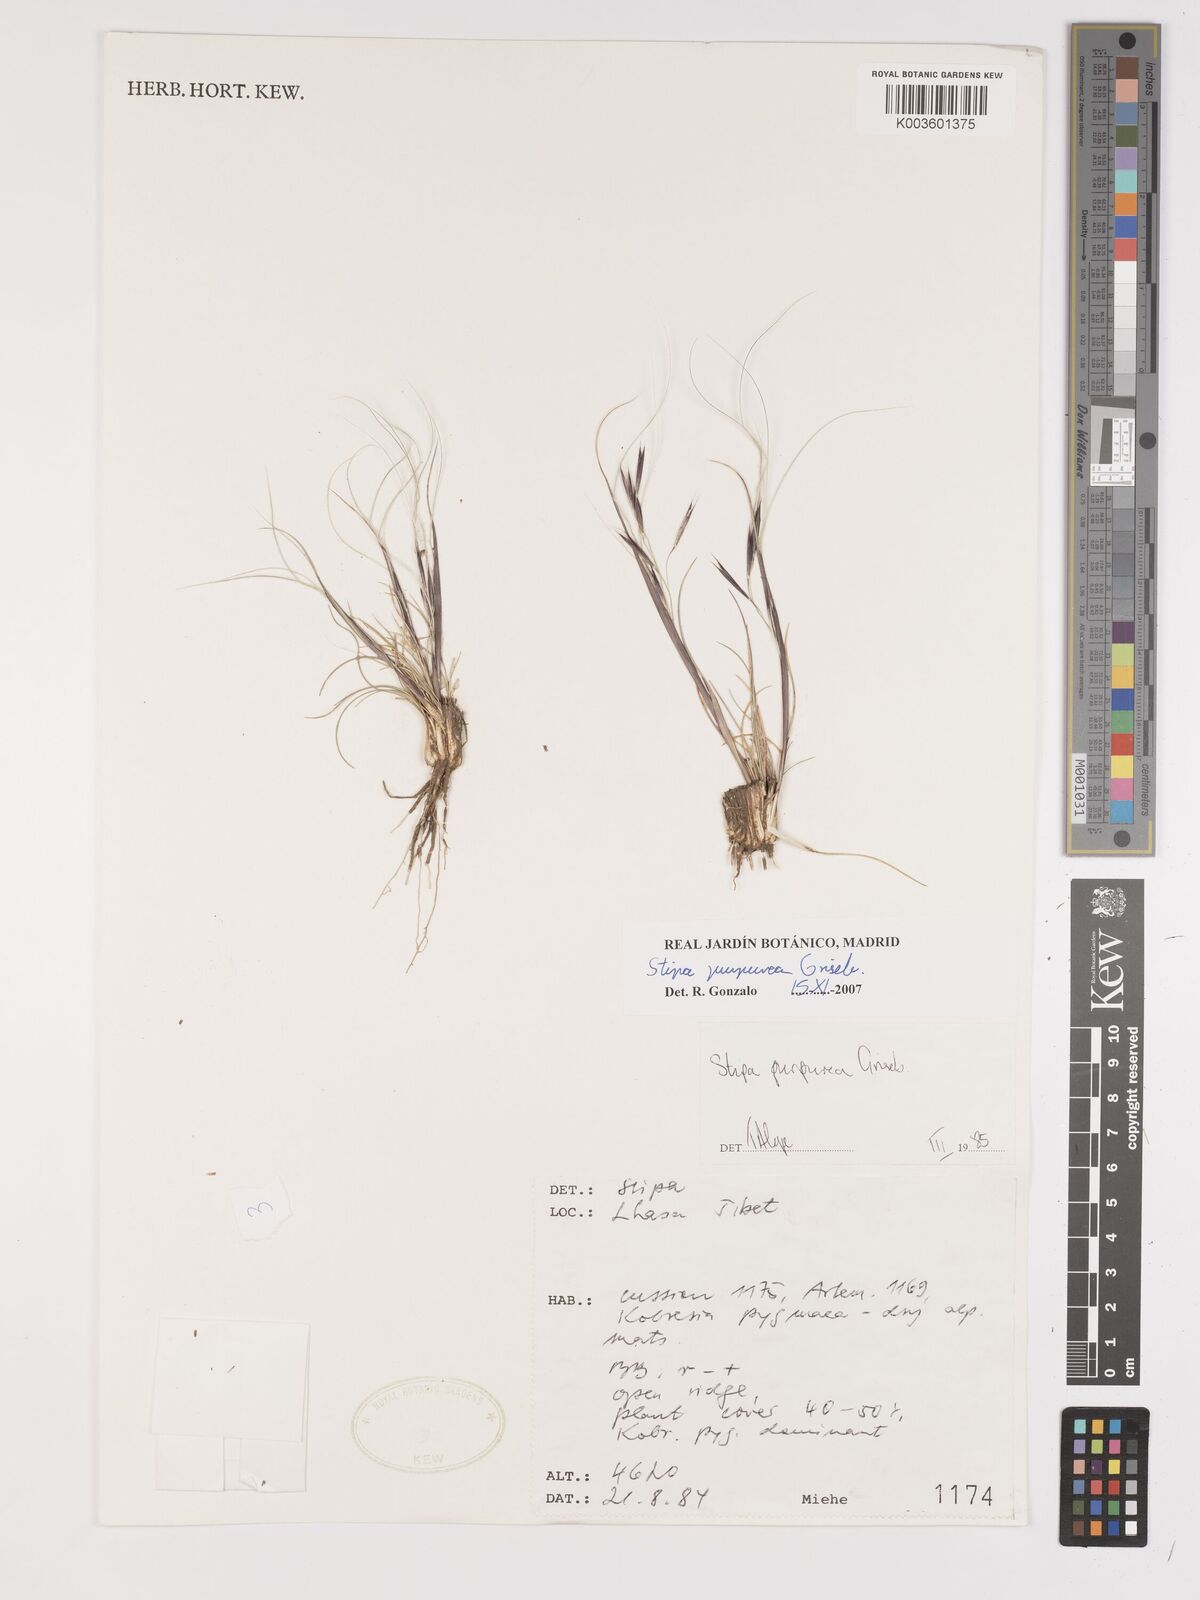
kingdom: Plantae
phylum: Tracheophyta
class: Liliopsida
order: Poales
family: Poaceae
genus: Stipa
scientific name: Stipa purpurea
